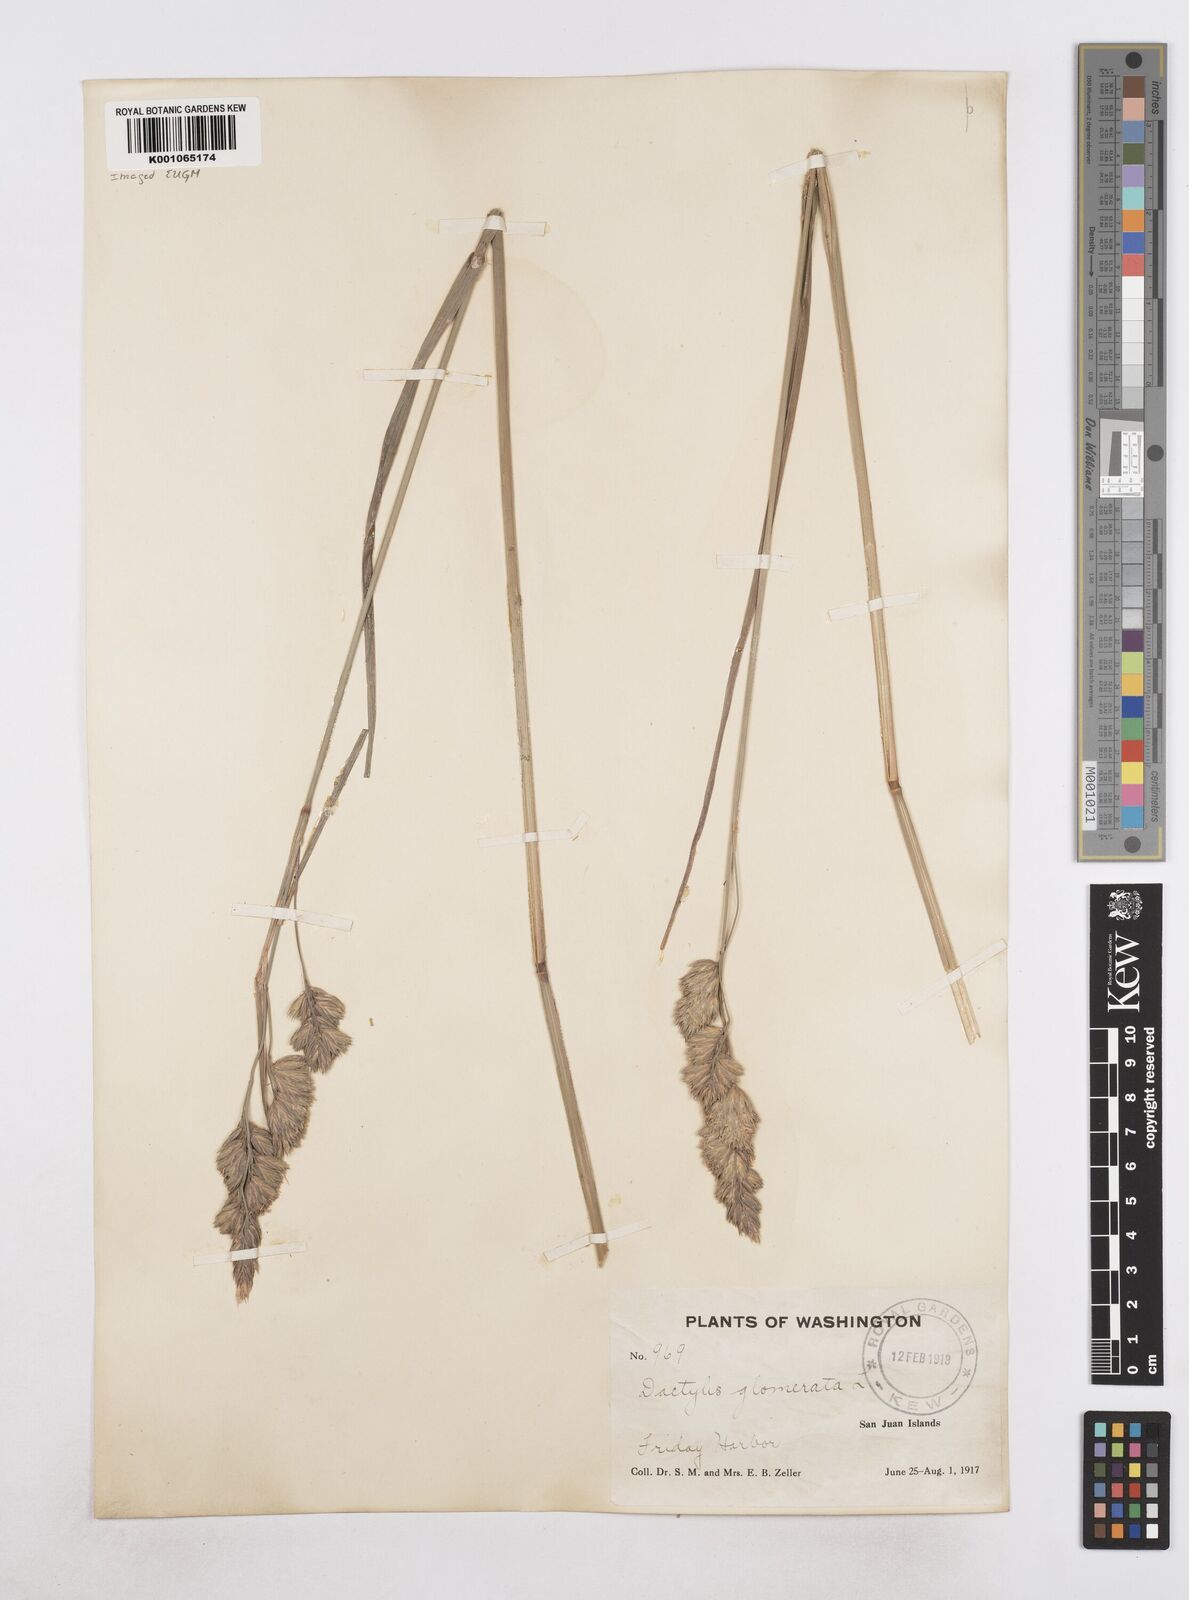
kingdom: Plantae
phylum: Tracheophyta
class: Liliopsida
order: Poales
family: Poaceae
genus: Dactylis
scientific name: Dactylis glomerata
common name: Orchardgrass
